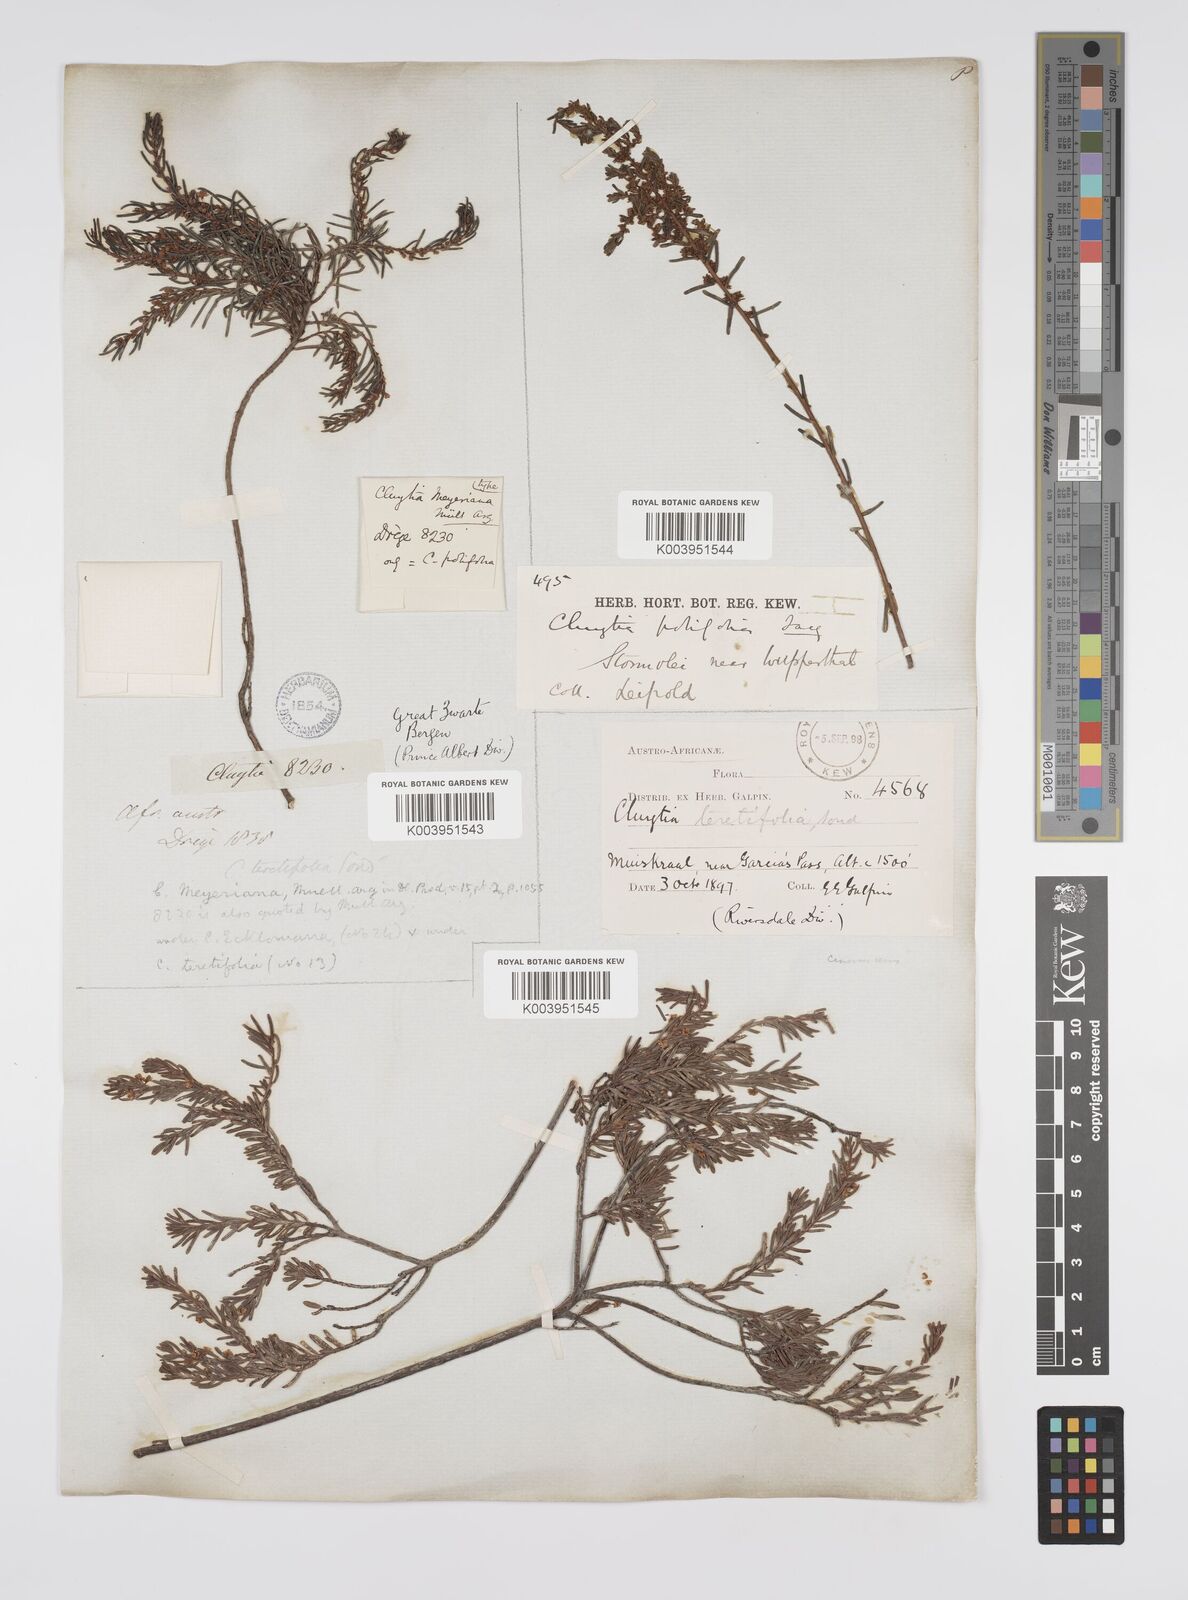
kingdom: Plantae
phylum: Tracheophyta
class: Magnoliopsida
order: Malpighiales
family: Peraceae
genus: Clutia
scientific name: Clutia
